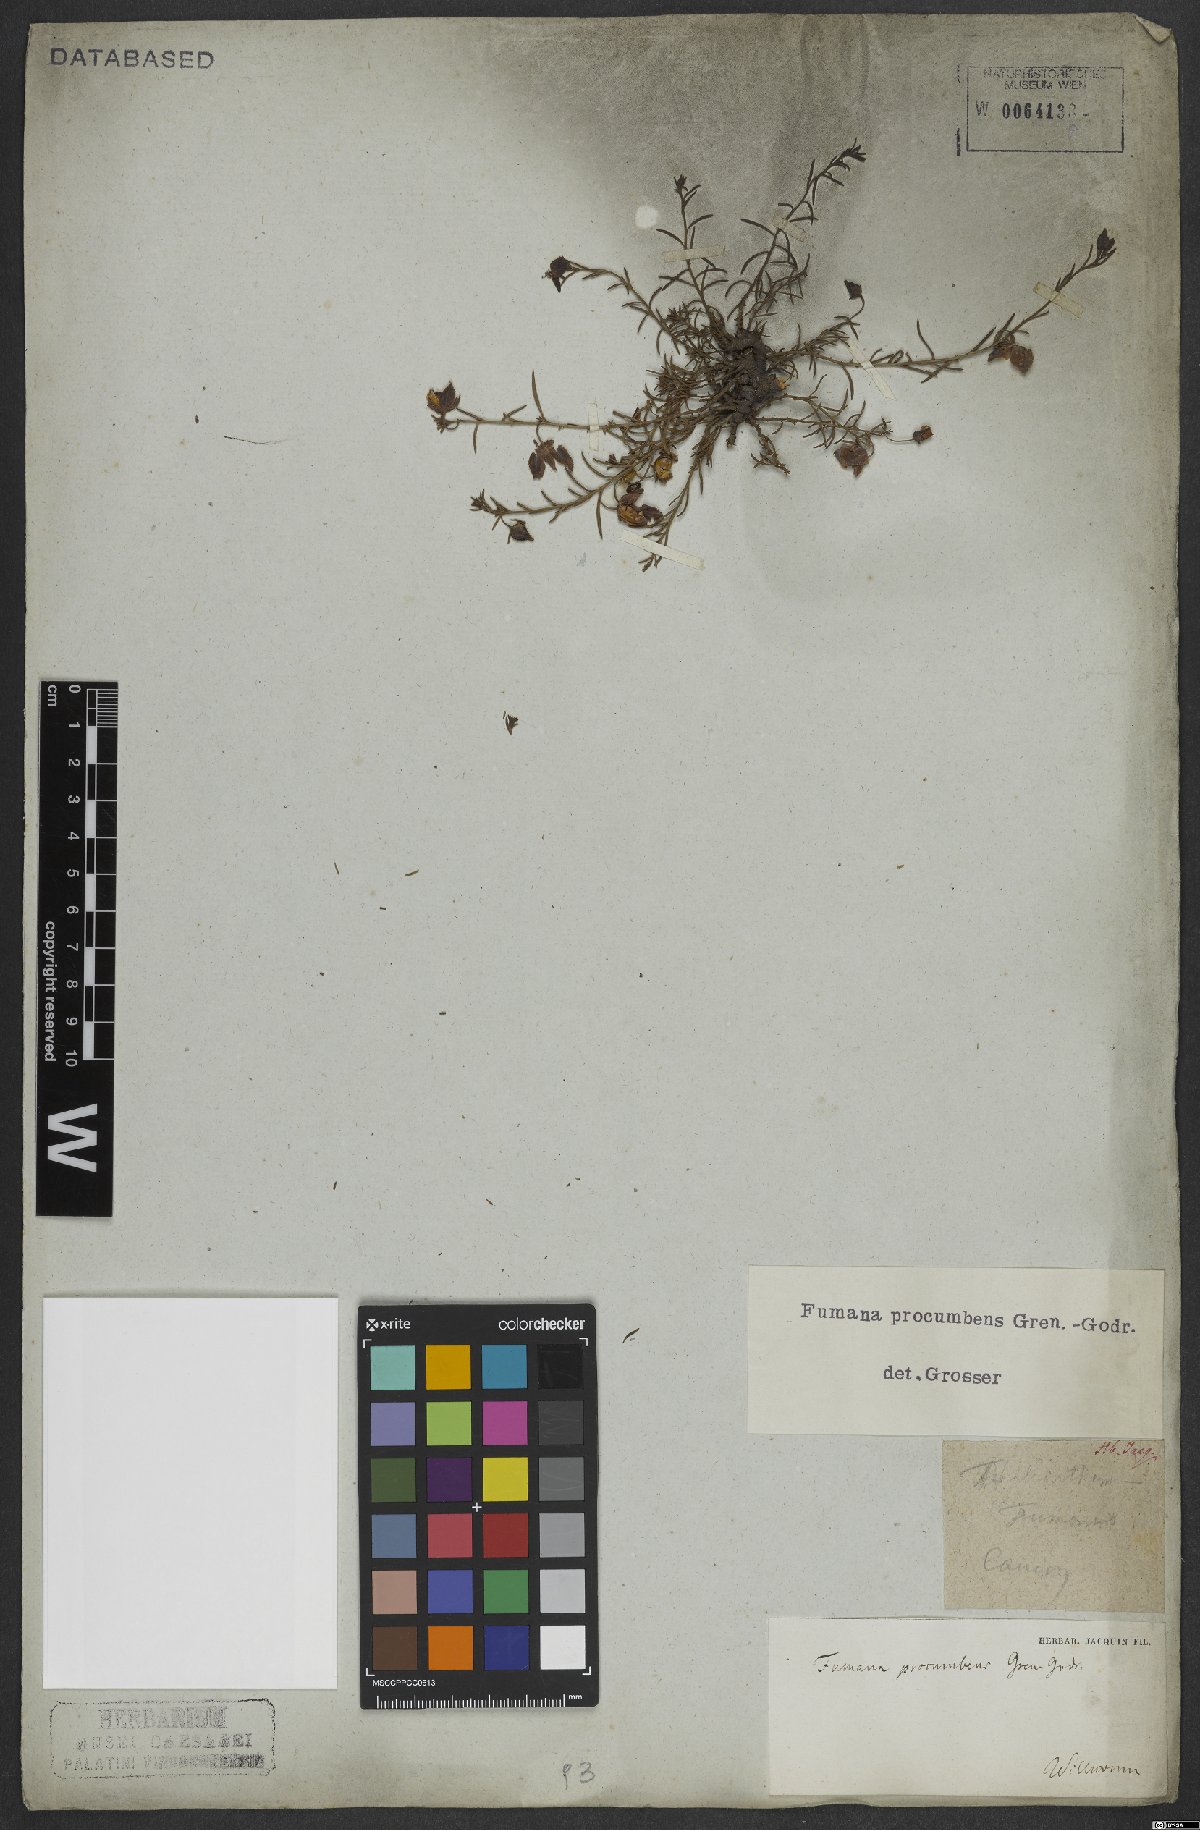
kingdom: Plantae
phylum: Tracheophyta
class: Magnoliopsida
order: Malvales
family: Cistaceae
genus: Fumana
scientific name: Fumana procumbens
